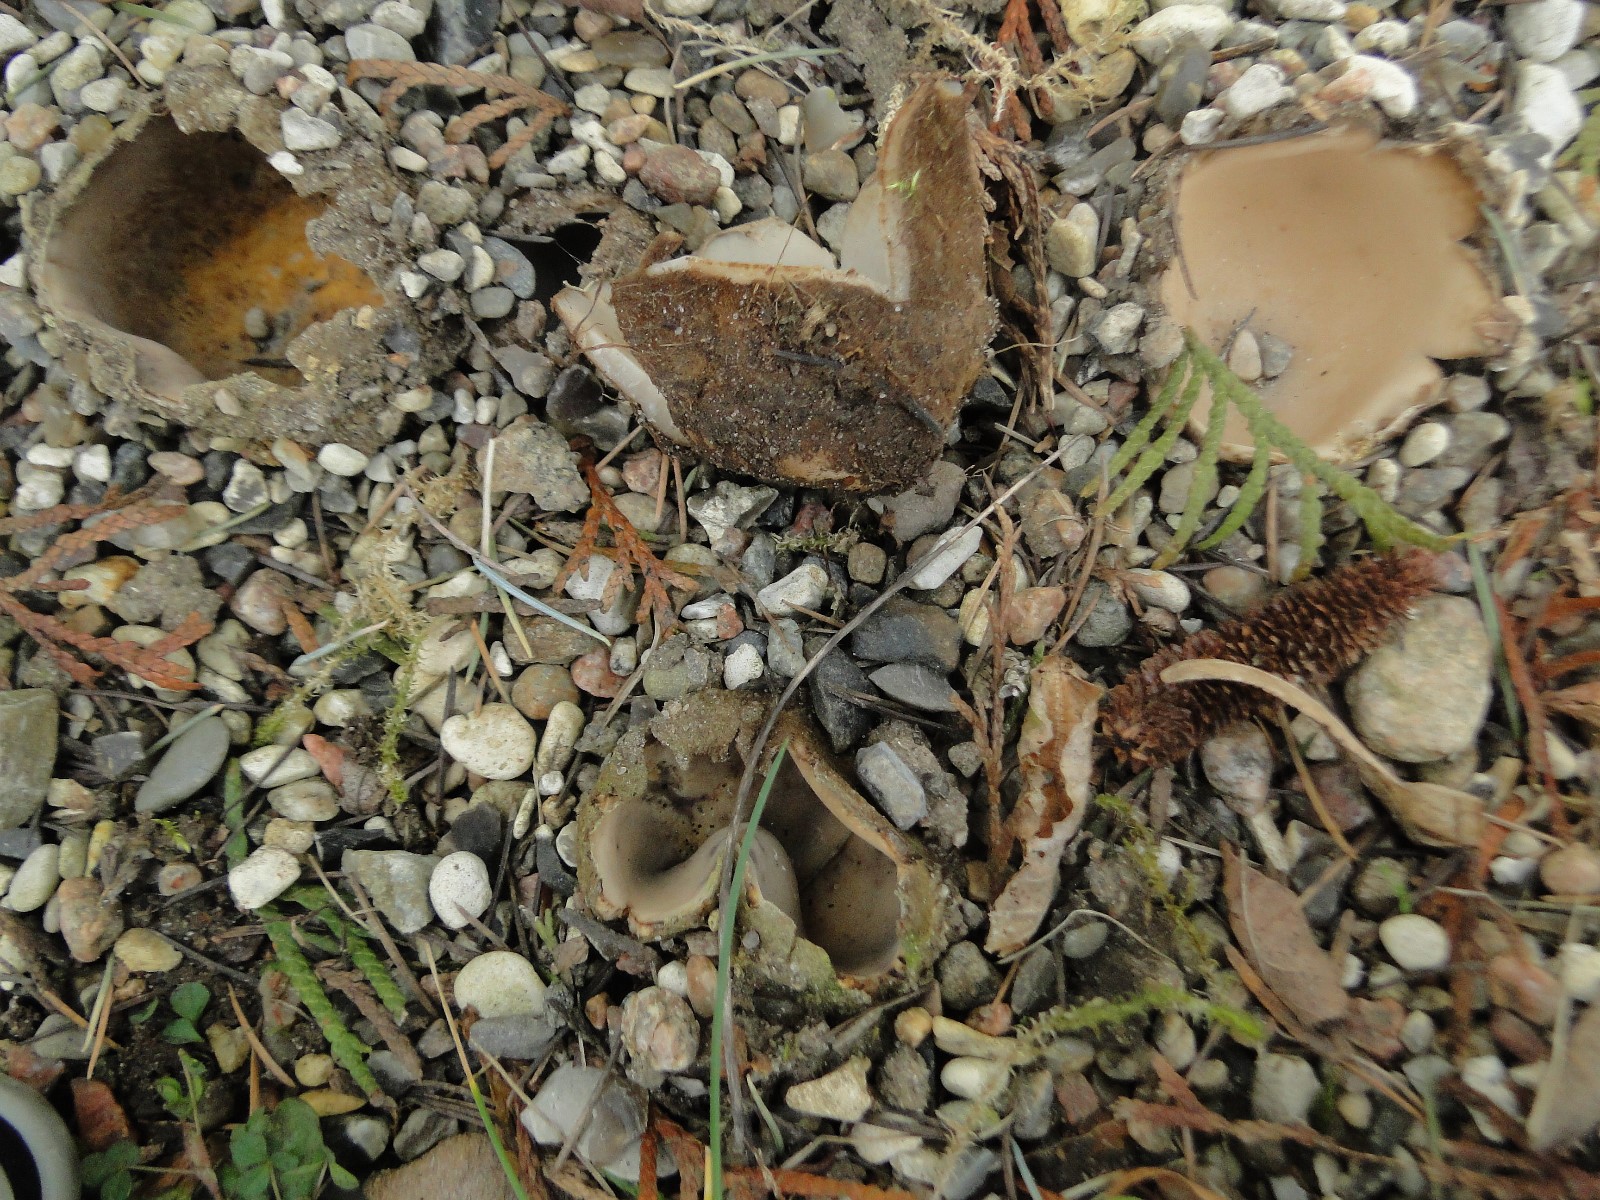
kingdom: Fungi
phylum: Ascomycota
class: Pezizomycetes
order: Pezizales
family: Pyronemataceae
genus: Geopora
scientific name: Geopora sumneriana
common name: vår-jordbæger
